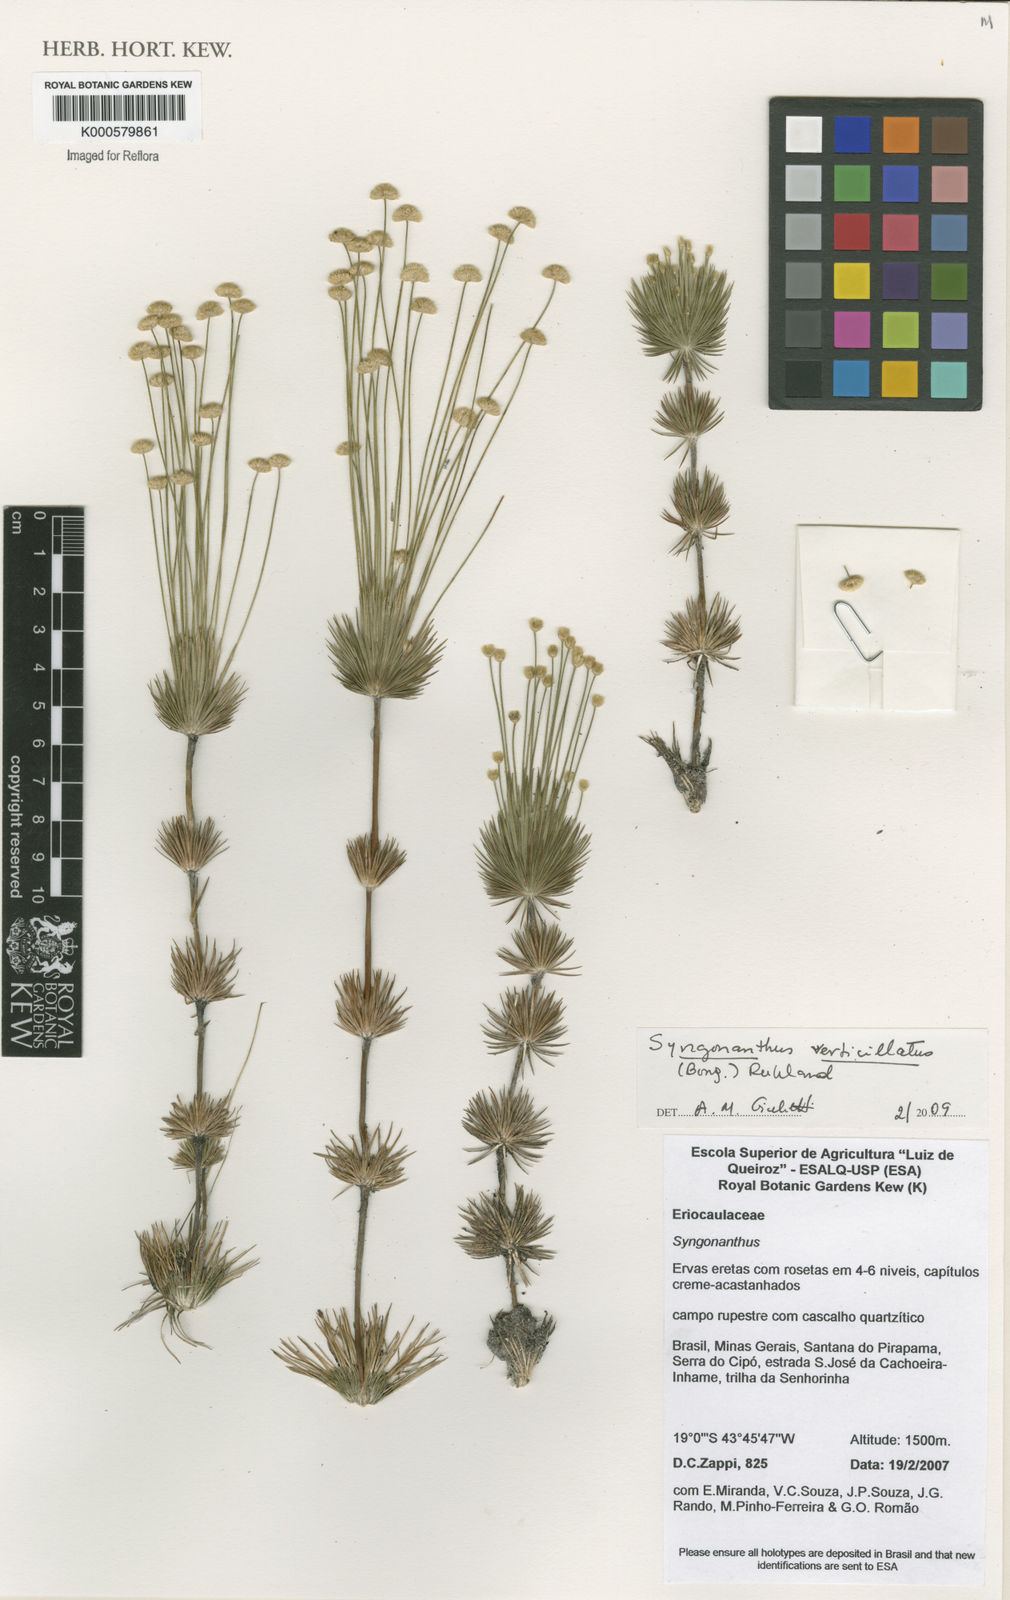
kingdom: Plantae
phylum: Tracheophyta
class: Liliopsida
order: Poales
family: Eriocaulaceae
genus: Syngonanthus
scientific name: Syngonanthus verticillatus
